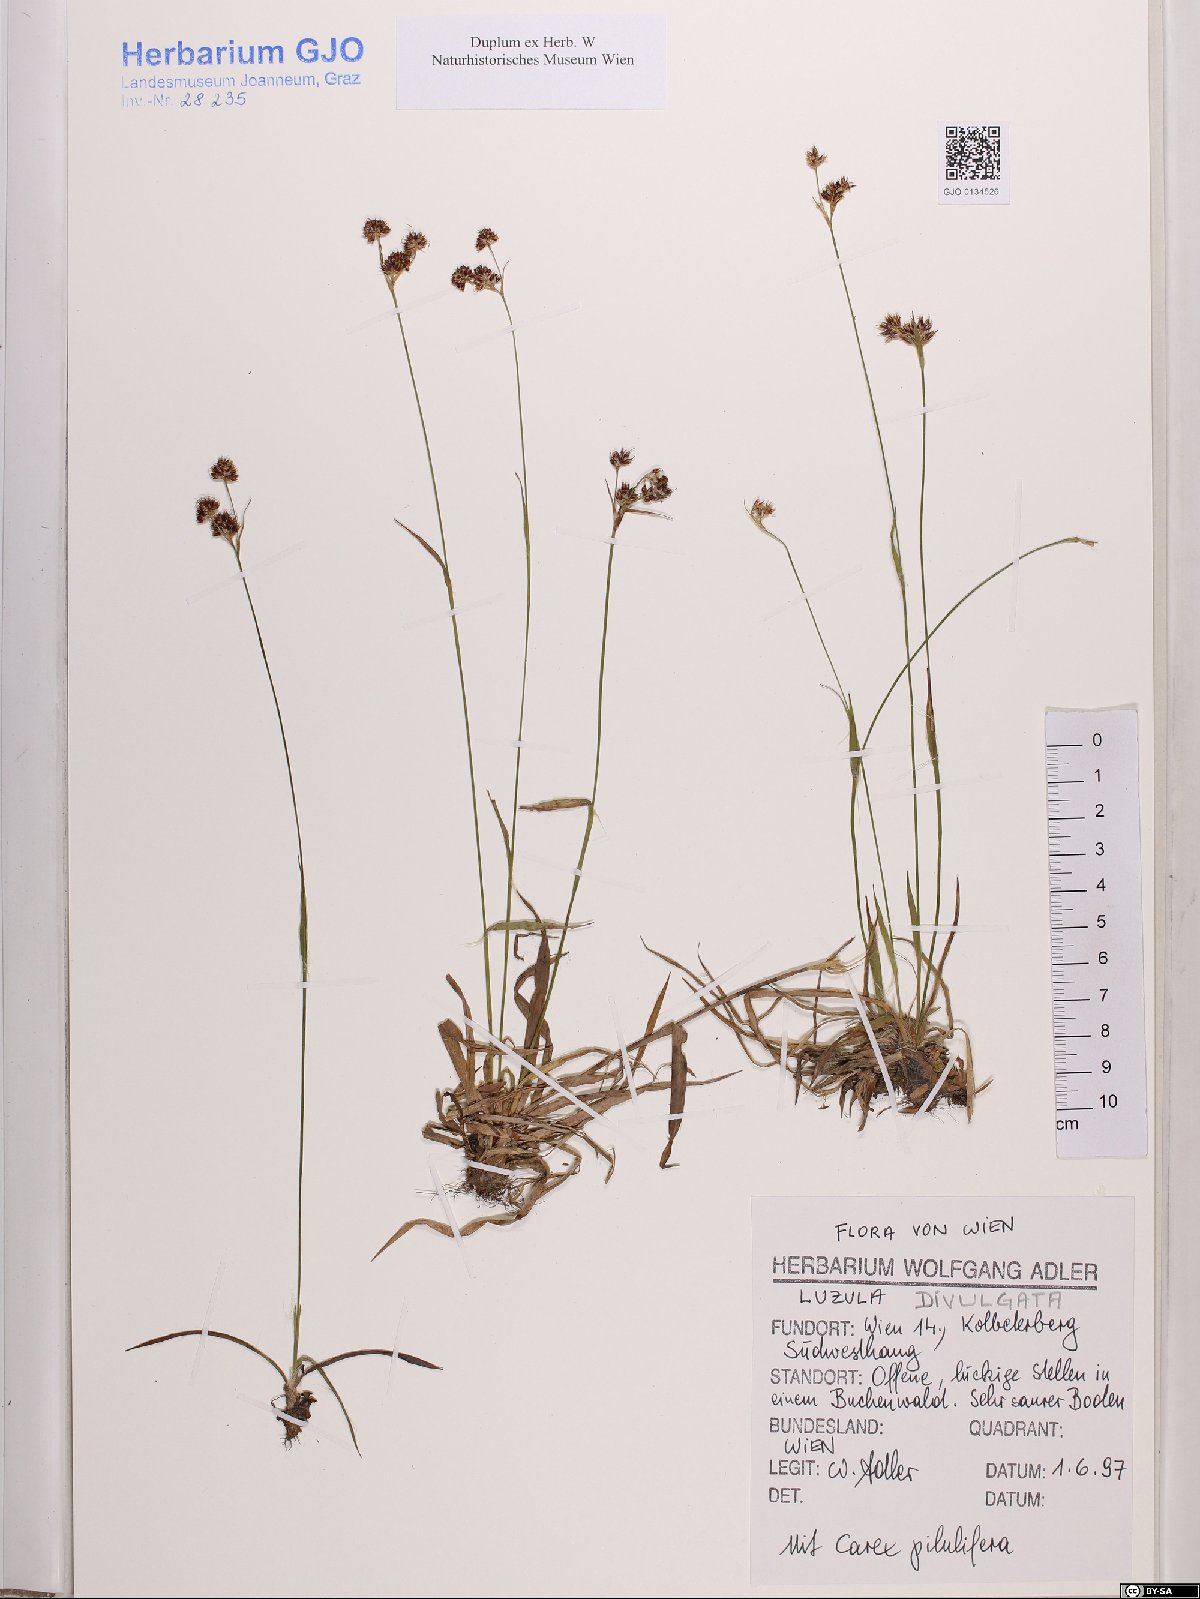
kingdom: Plantae
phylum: Tracheophyta
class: Liliopsida
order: Poales
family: Juncaceae
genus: Luzula
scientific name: Luzula divulgata
